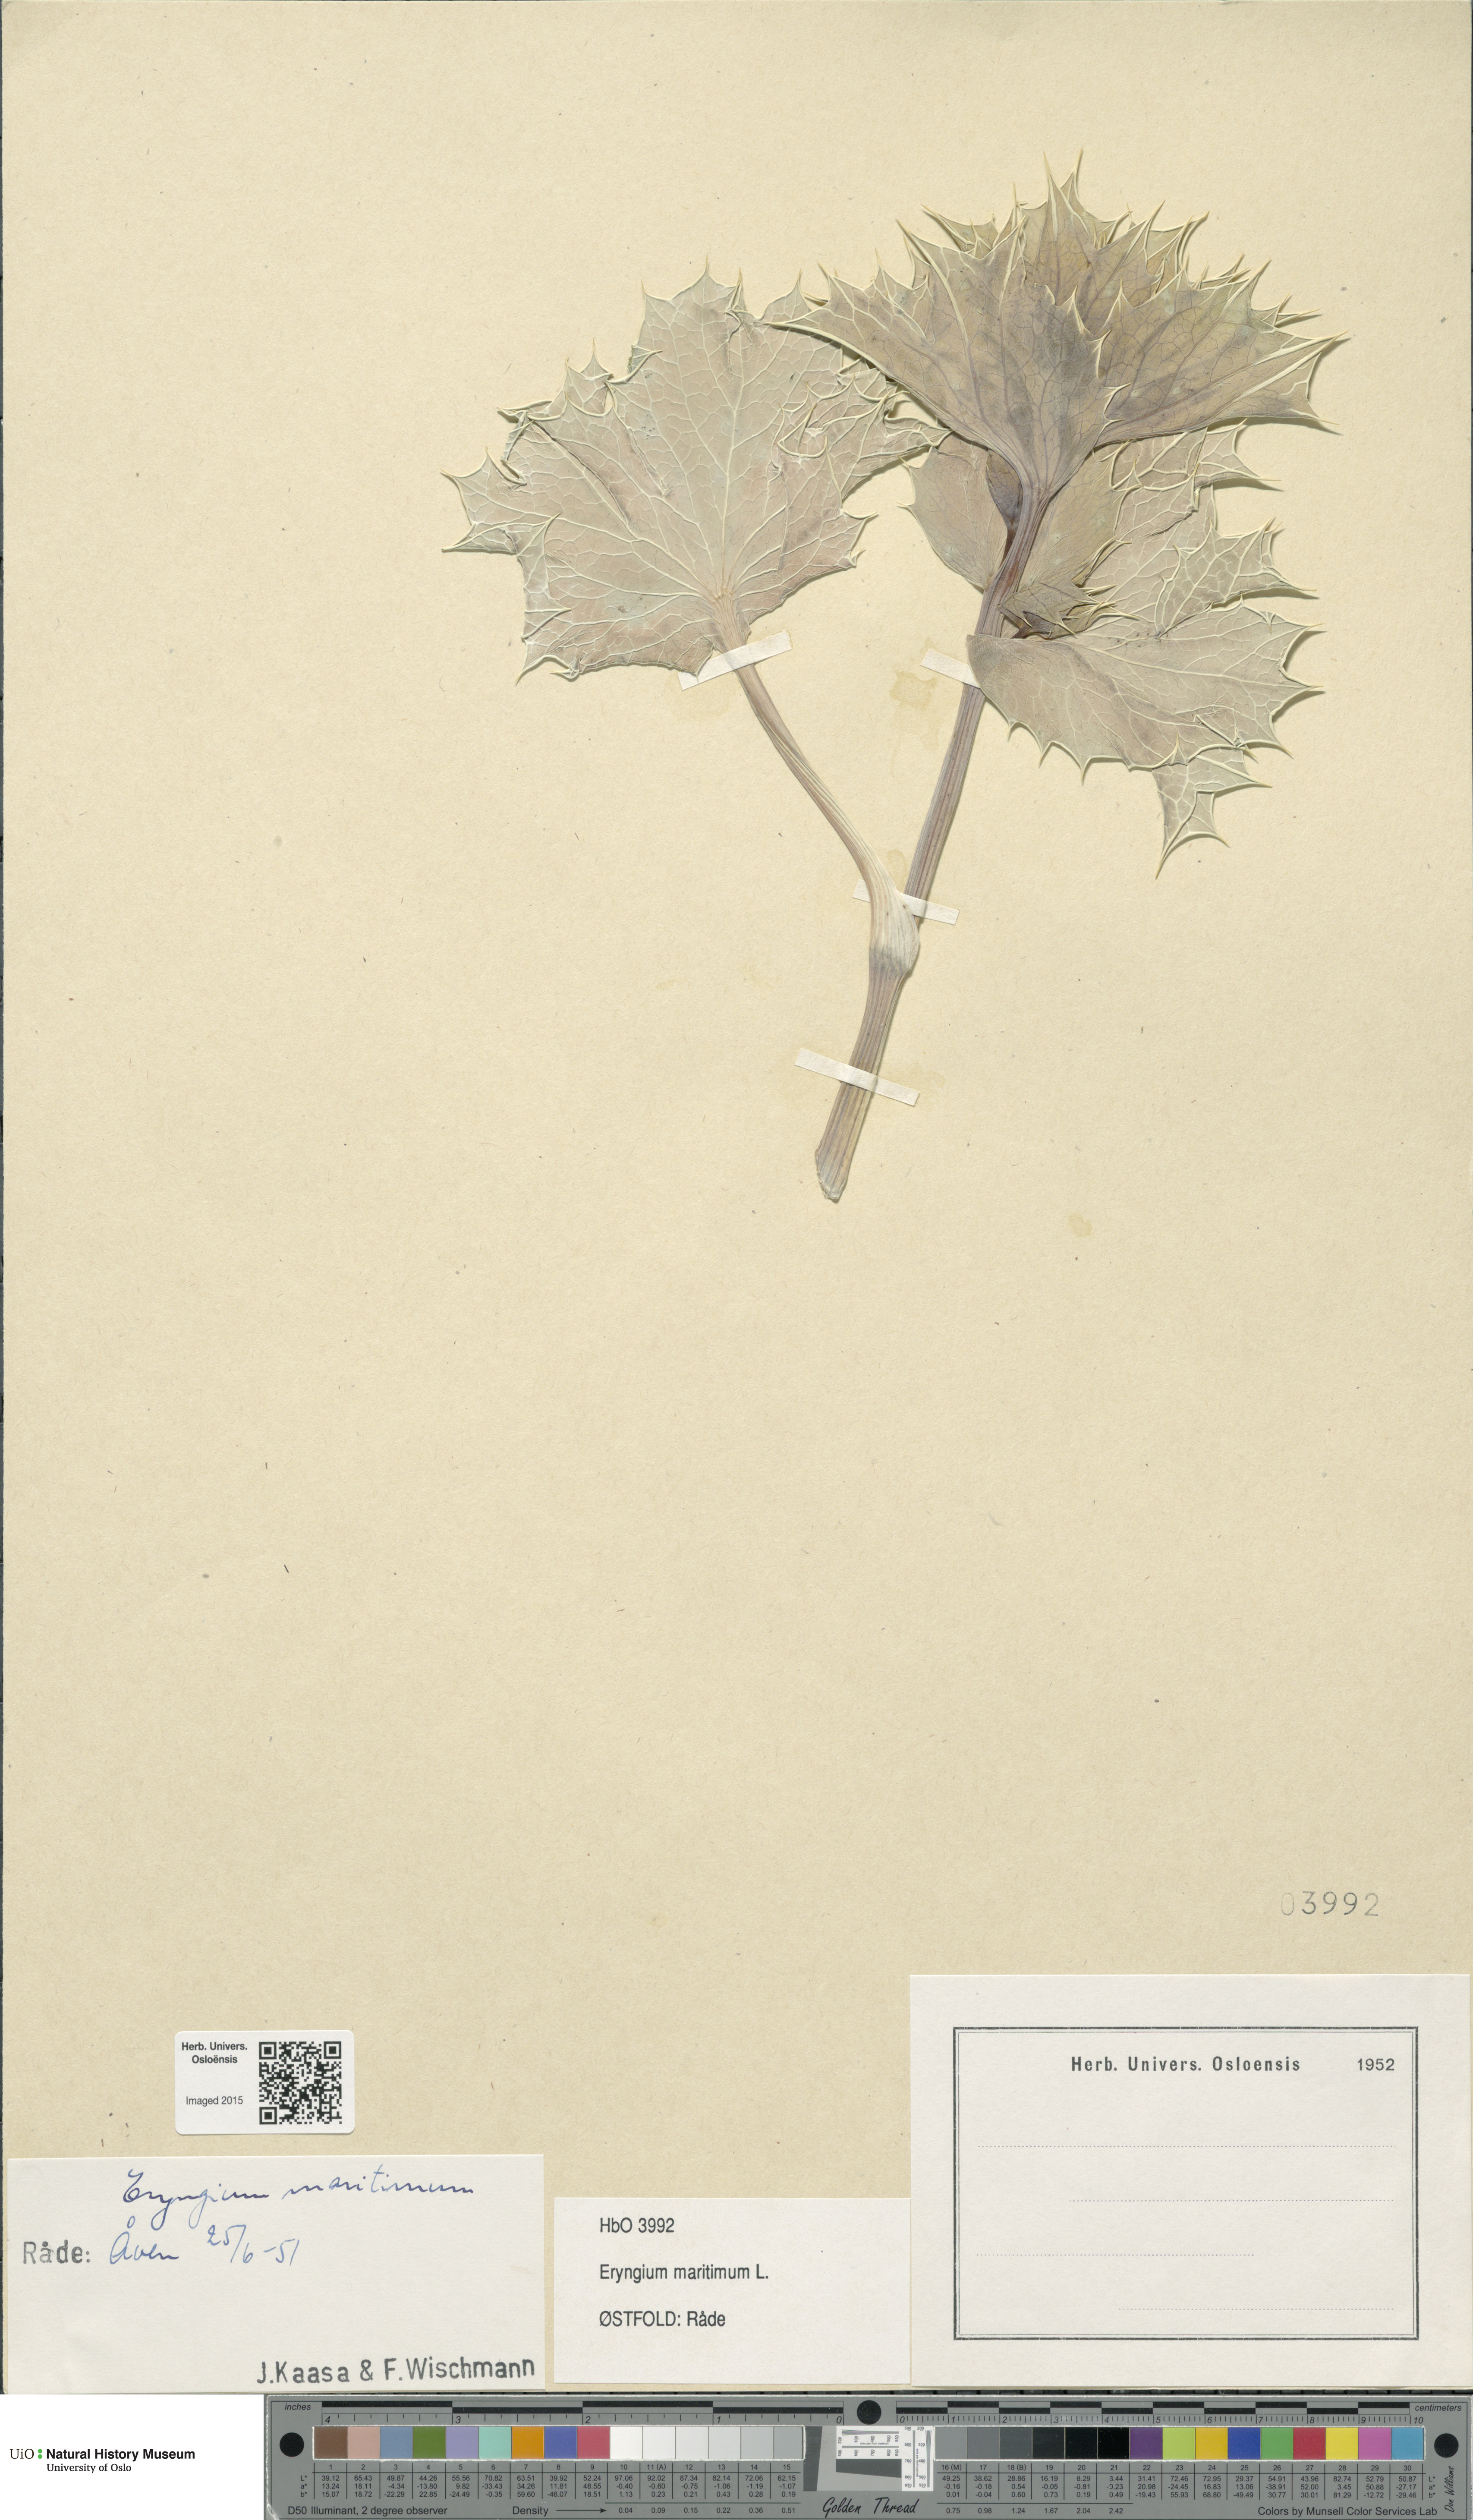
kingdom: Plantae
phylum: Tracheophyta
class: Magnoliopsida
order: Apiales
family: Apiaceae
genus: Eryngium
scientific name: Eryngium maritimum
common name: Sea-holly
